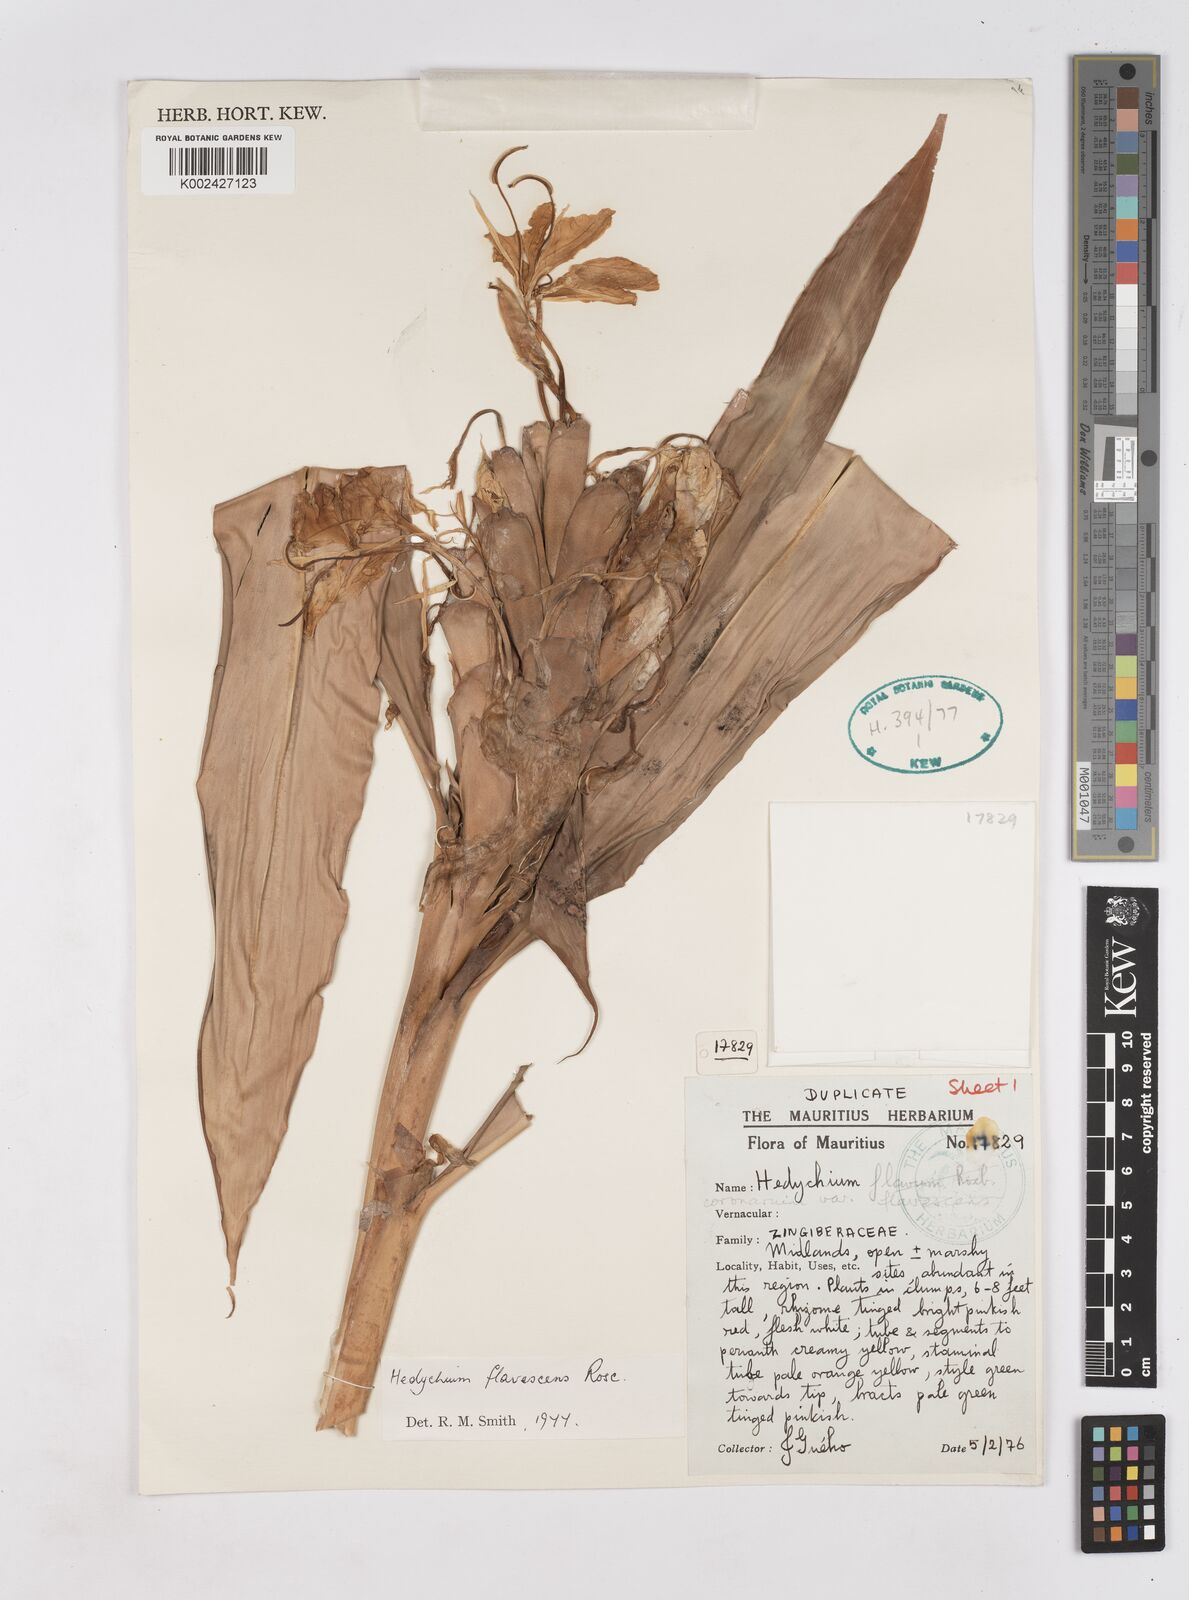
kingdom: Plantae
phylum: Tracheophyta
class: Liliopsida
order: Zingiberales
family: Zingiberaceae
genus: Hedychium
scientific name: Hedychium flavescens
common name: Yellow ginger
